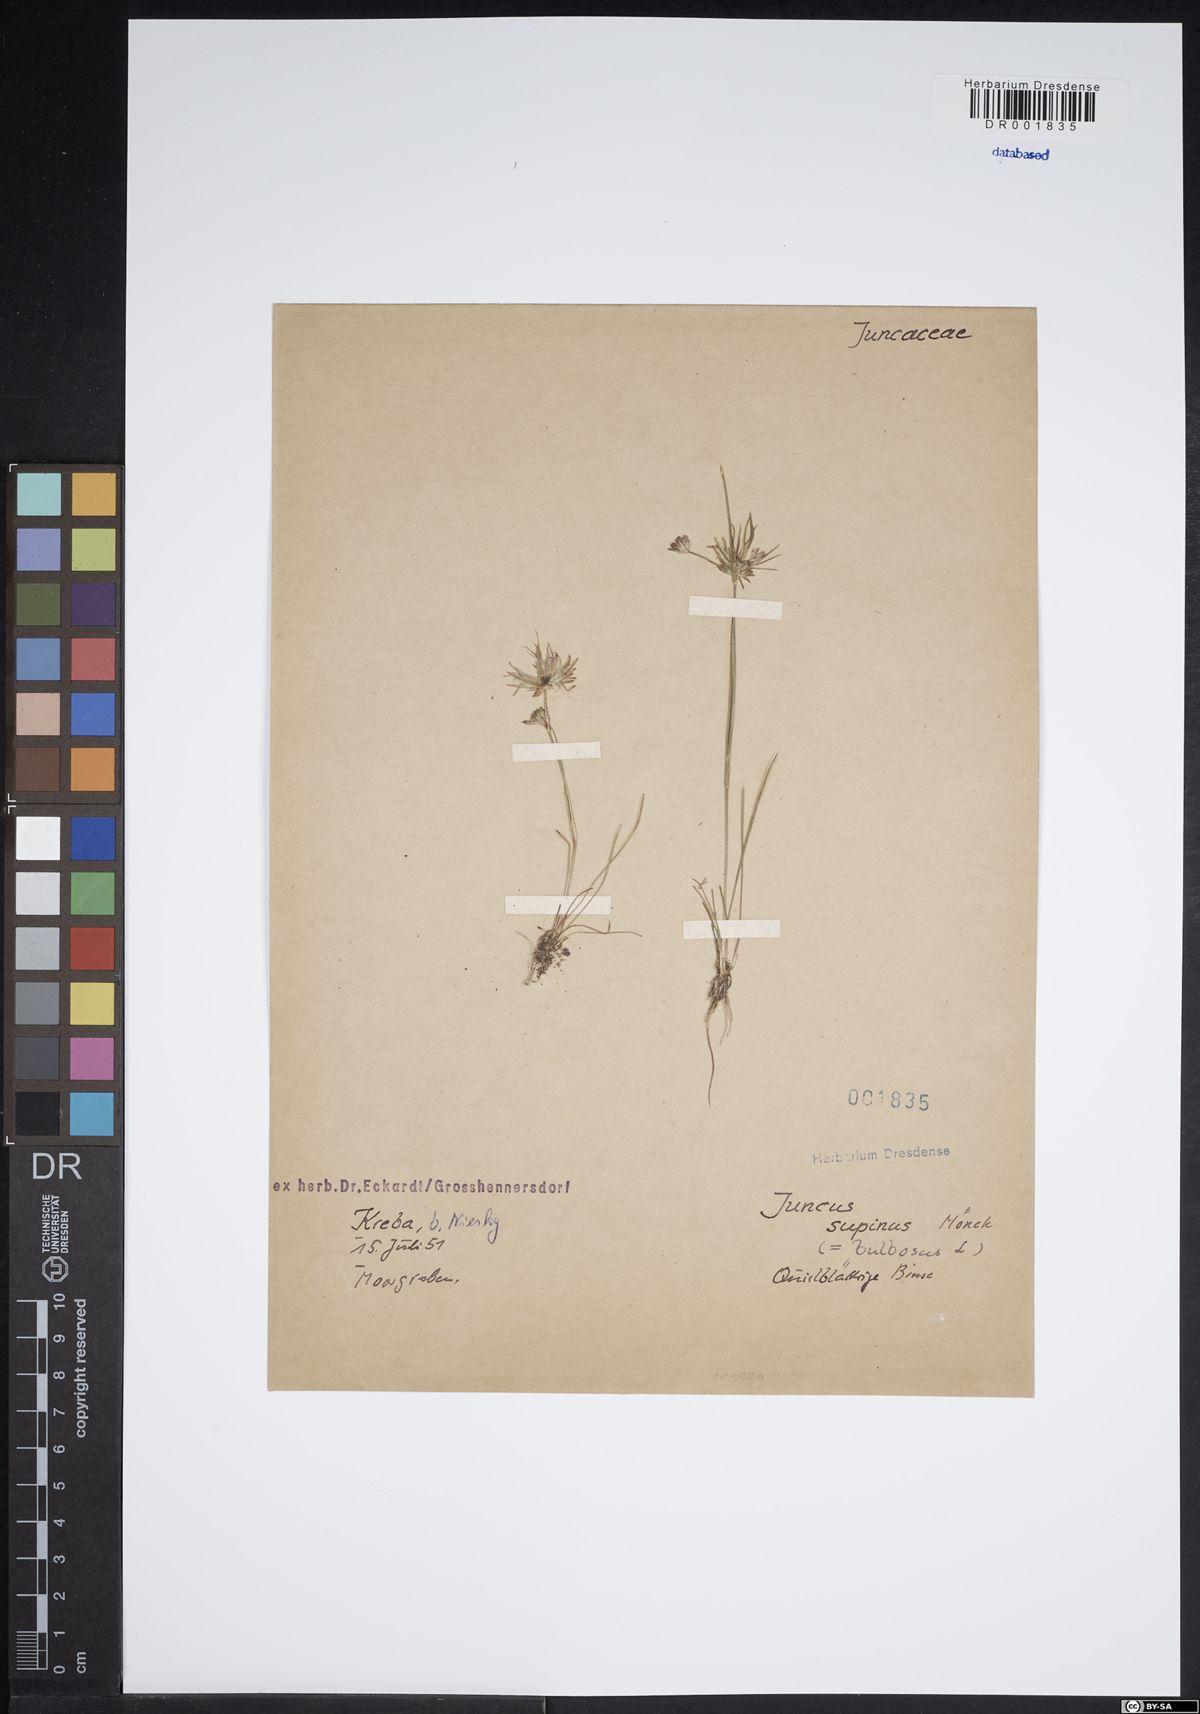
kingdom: Plantae
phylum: Tracheophyta
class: Liliopsida
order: Poales
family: Juncaceae
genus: Juncus
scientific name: Juncus bulbosus
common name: Bulbous rush
